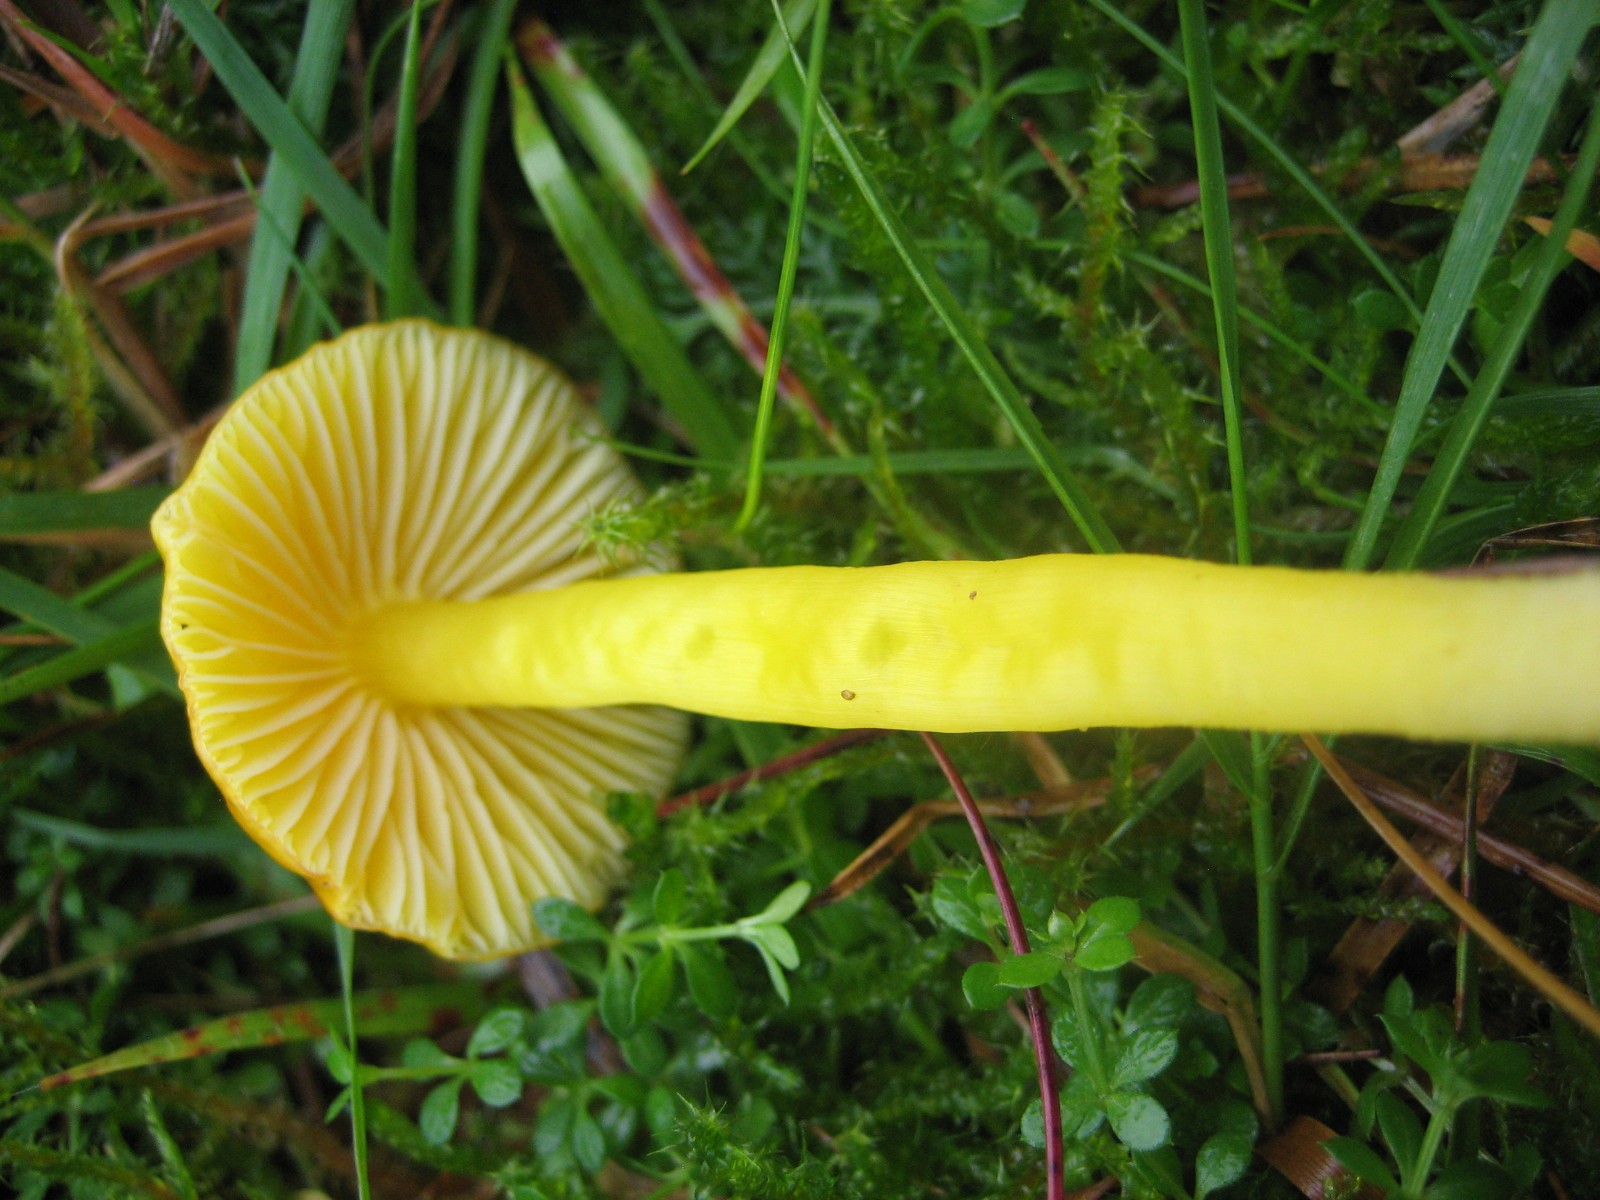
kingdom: Fungi
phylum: Basidiomycota
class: Agaricomycetes
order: Agaricales
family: Hygrophoraceae
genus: Hygrocybe
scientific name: Hygrocybe chlorophana
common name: gul vokshat
